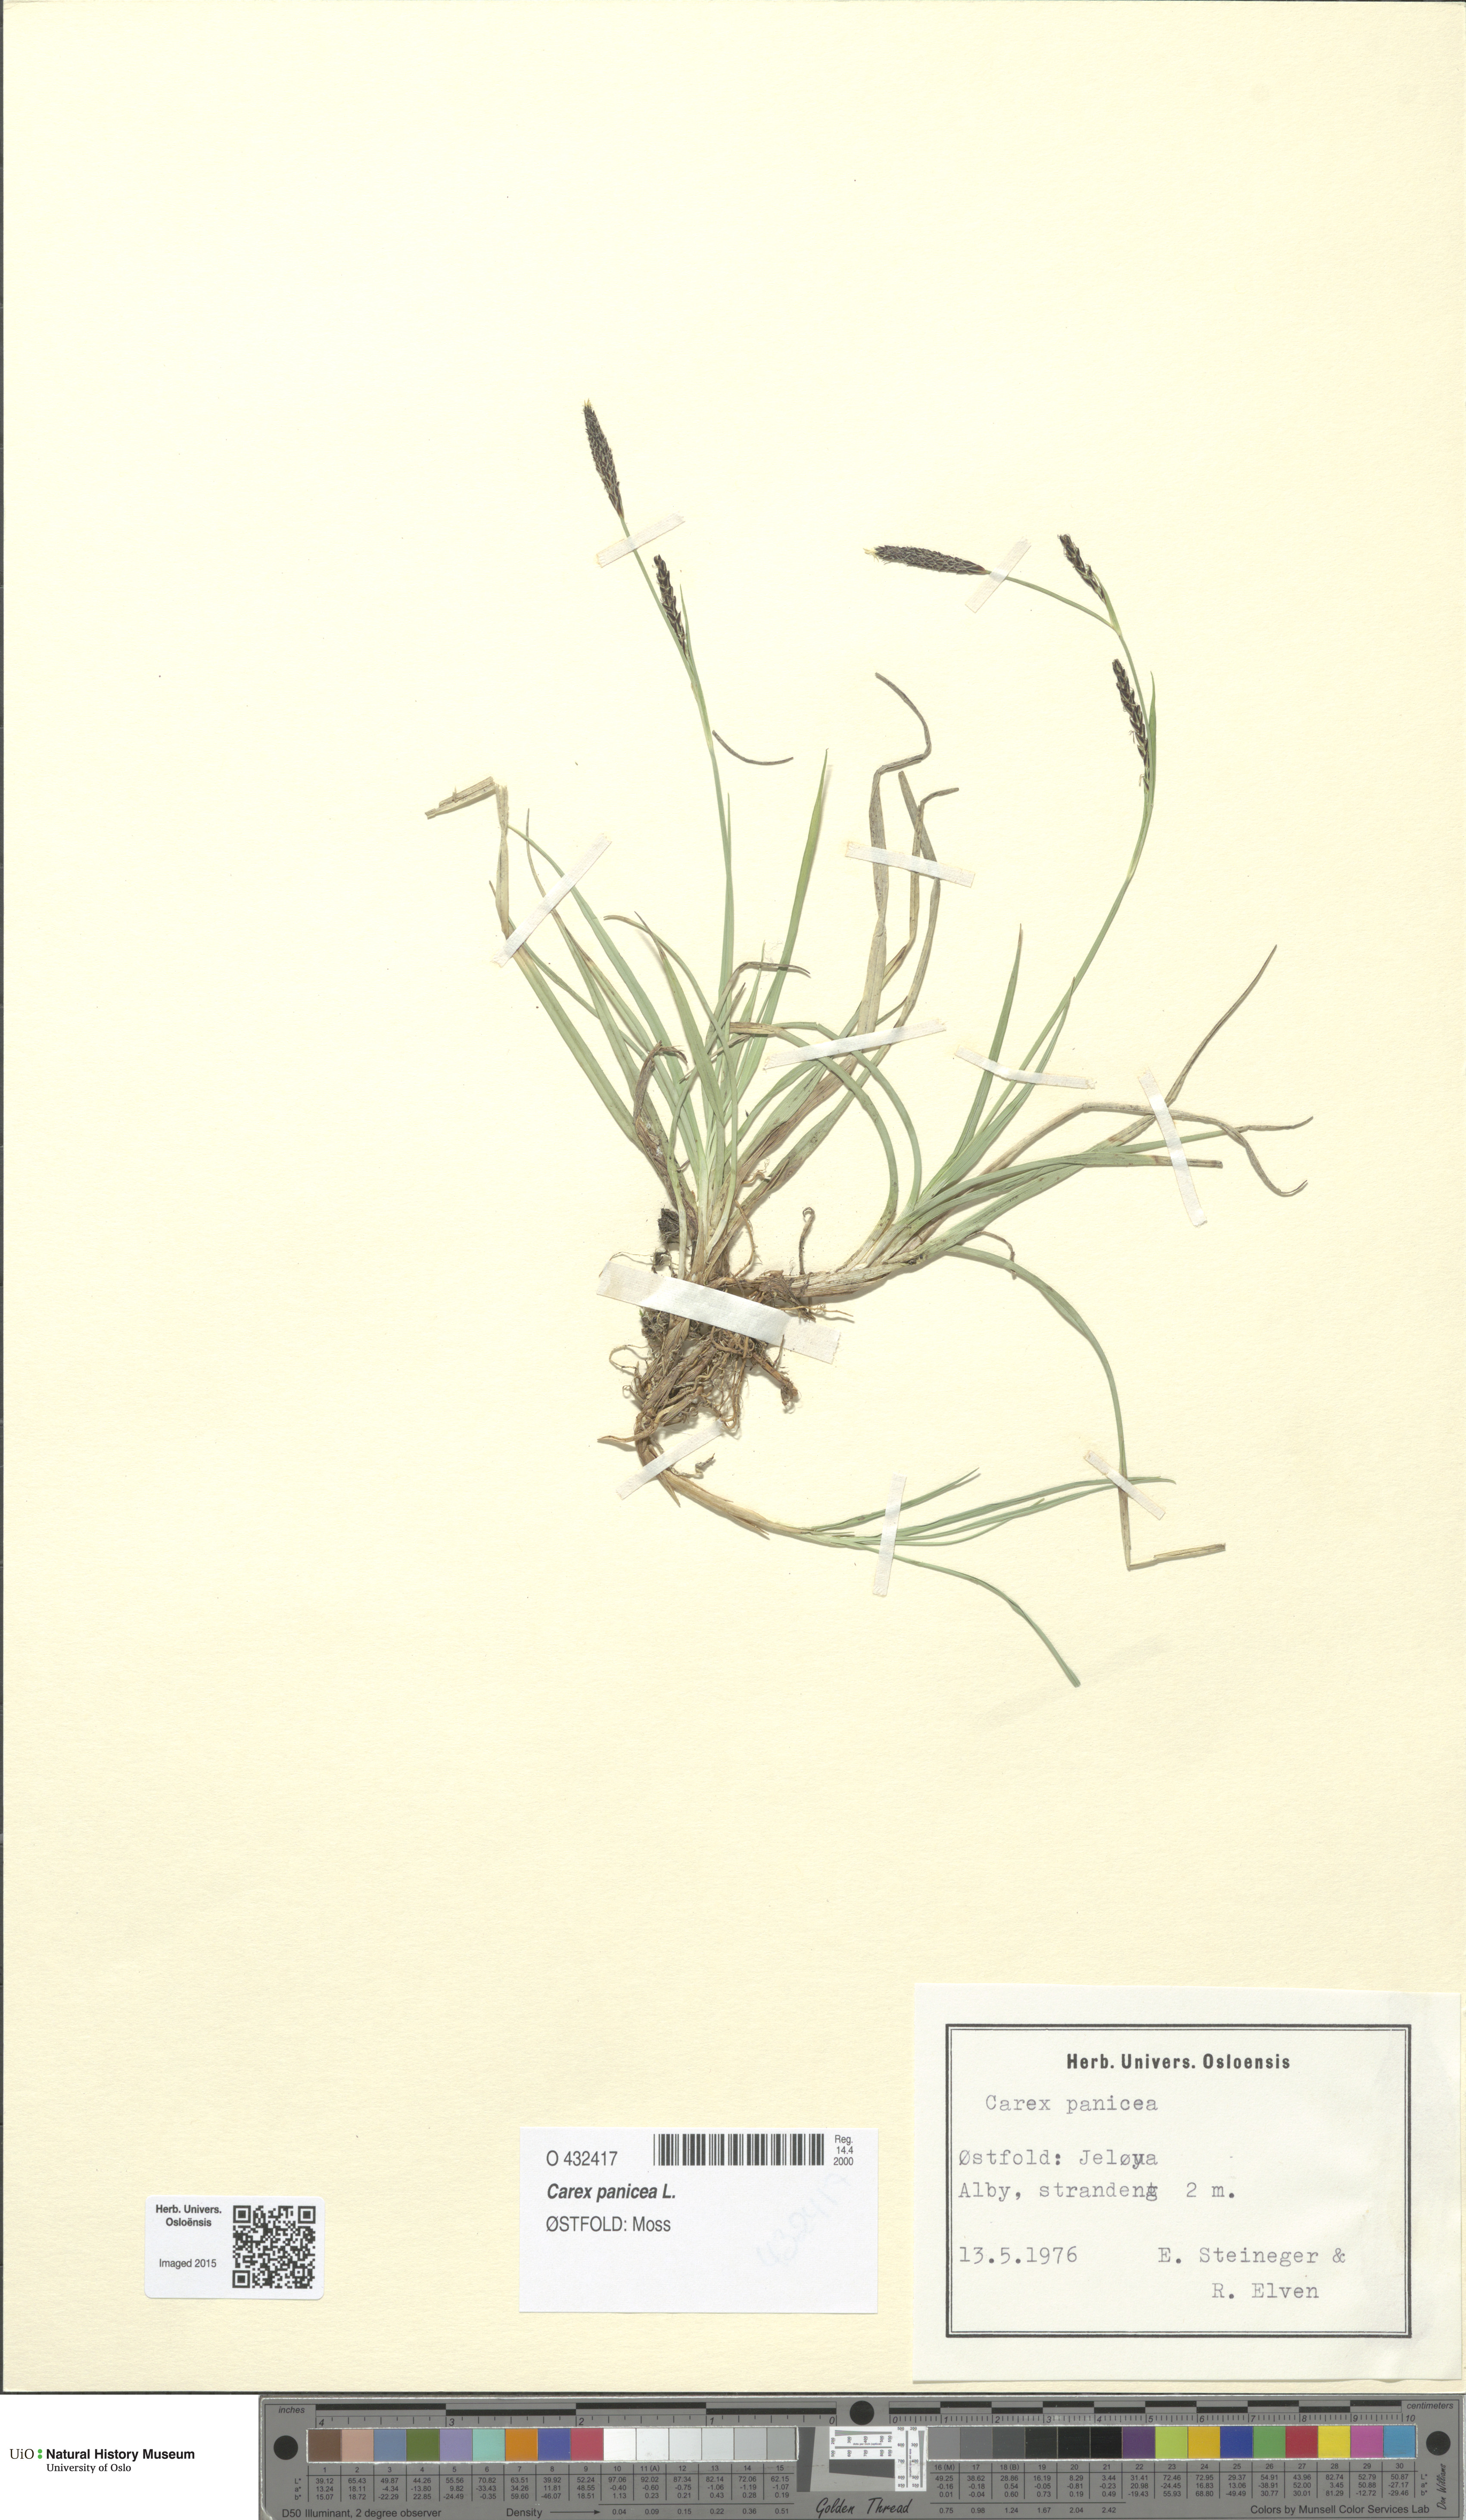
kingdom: Plantae
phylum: Tracheophyta
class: Liliopsida
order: Poales
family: Cyperaceae
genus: Carex
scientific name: Carex panicea
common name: Carnation sedge
